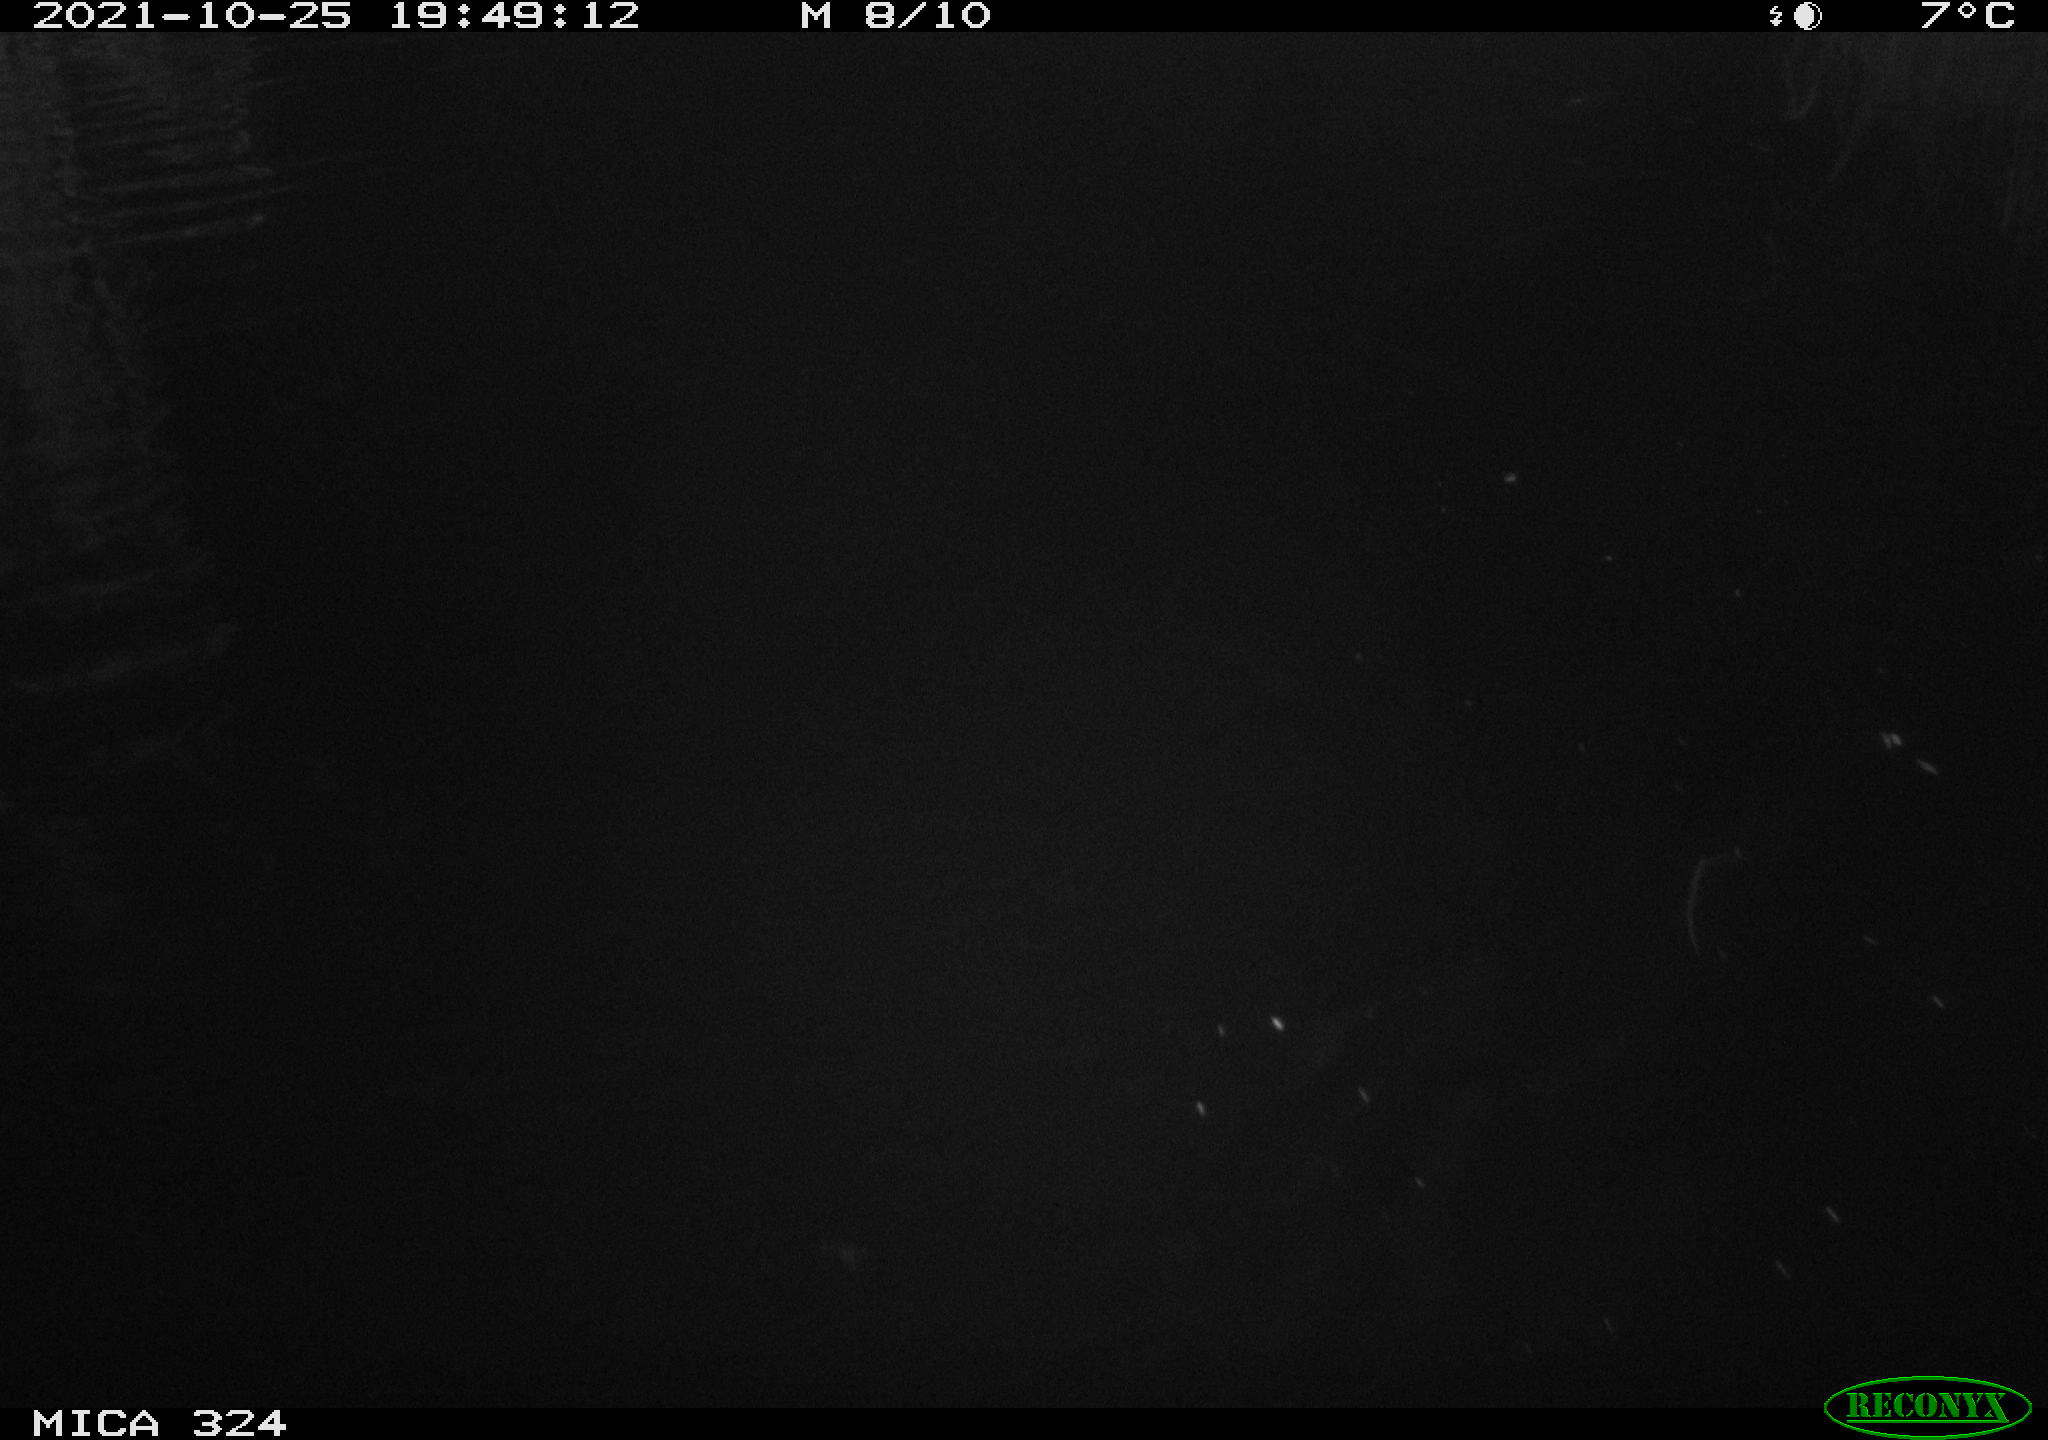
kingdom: Animalia
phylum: Chordata
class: Mammalia
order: Rodentia
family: Cricetidae
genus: Ondatra
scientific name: Ondatra zibethicus
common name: Muskrat
